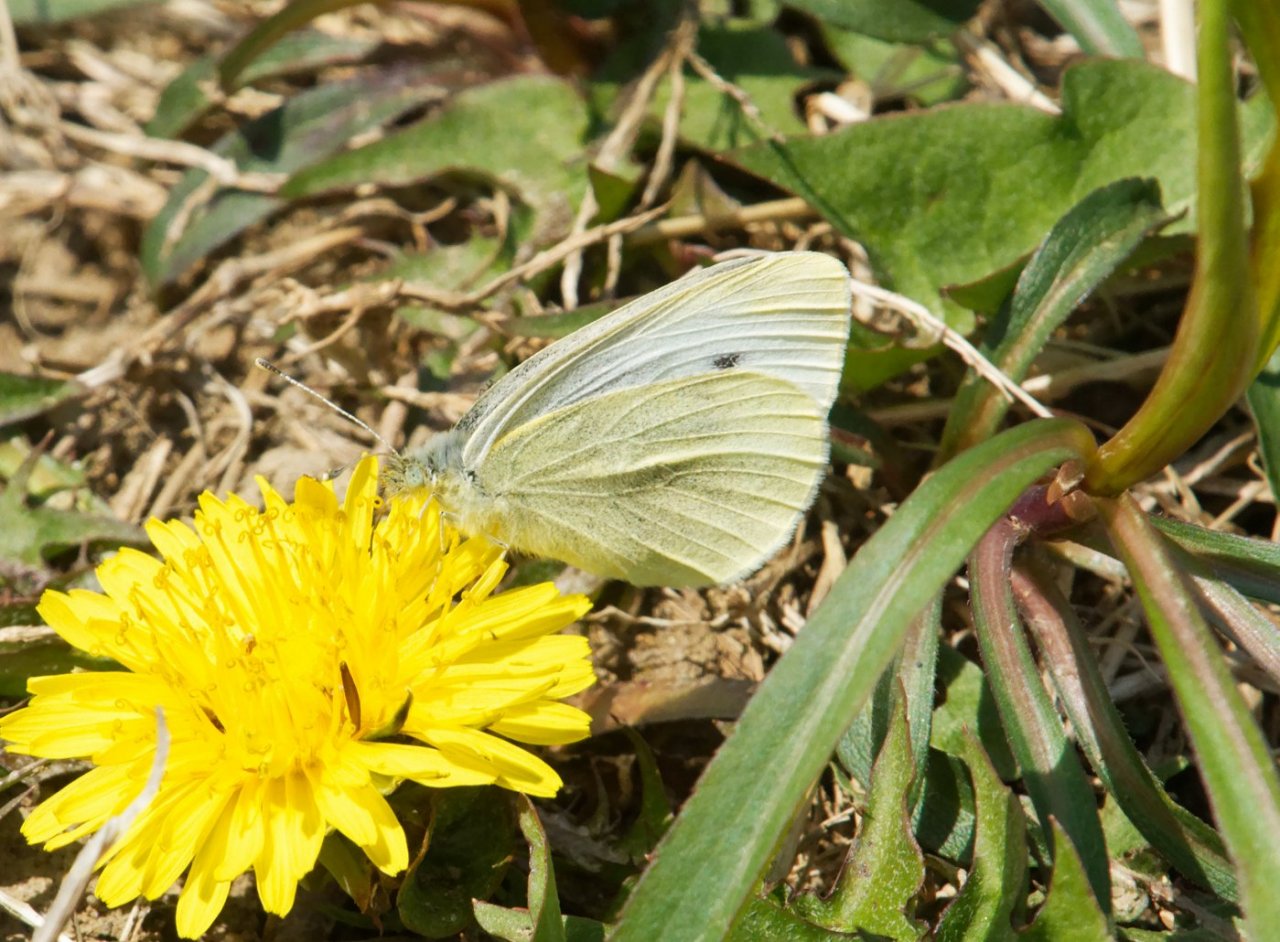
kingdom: Animalia
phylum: Arthropoda
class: Insecta
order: Lepidoptera
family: Pieridae
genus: Pieris
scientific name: Pieris rapae
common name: Cabbage White
